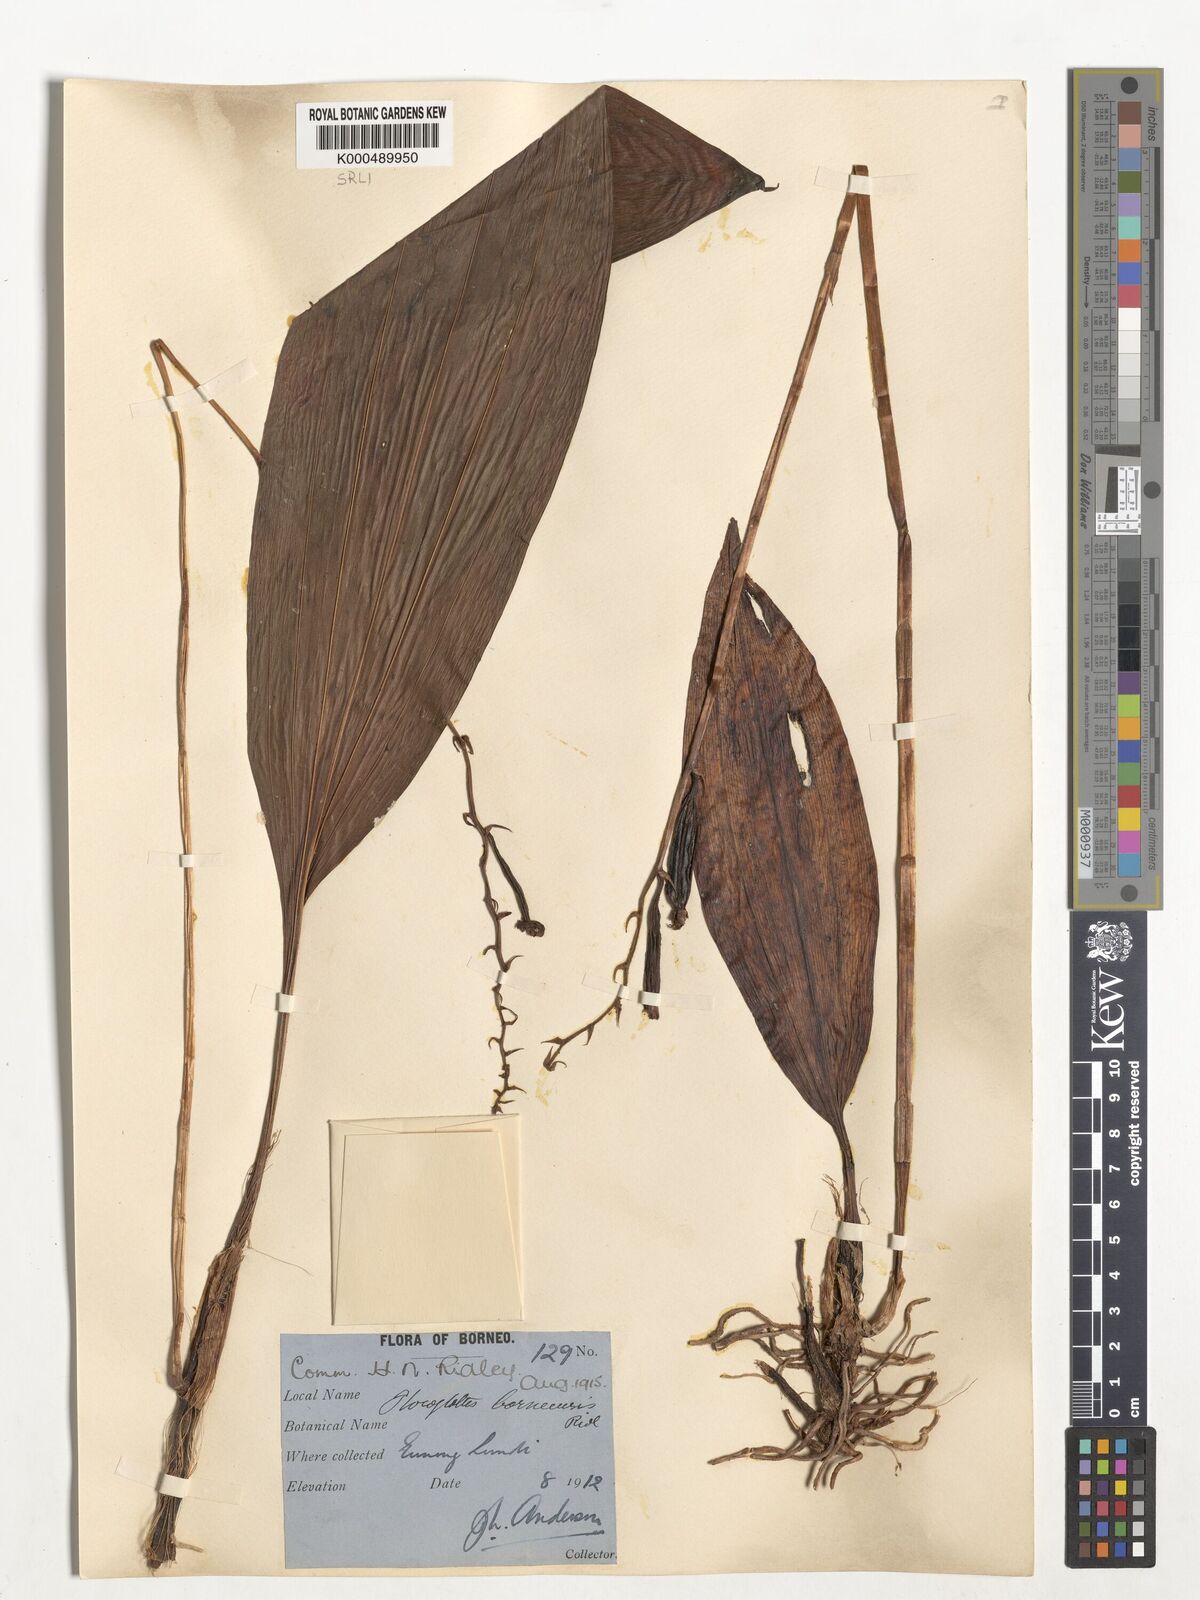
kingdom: Plantae
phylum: Tracheophyta
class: Liliopsida
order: Asparagales
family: Orchidaceae
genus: Plocoglottis
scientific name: Plocoglottis borneensis
